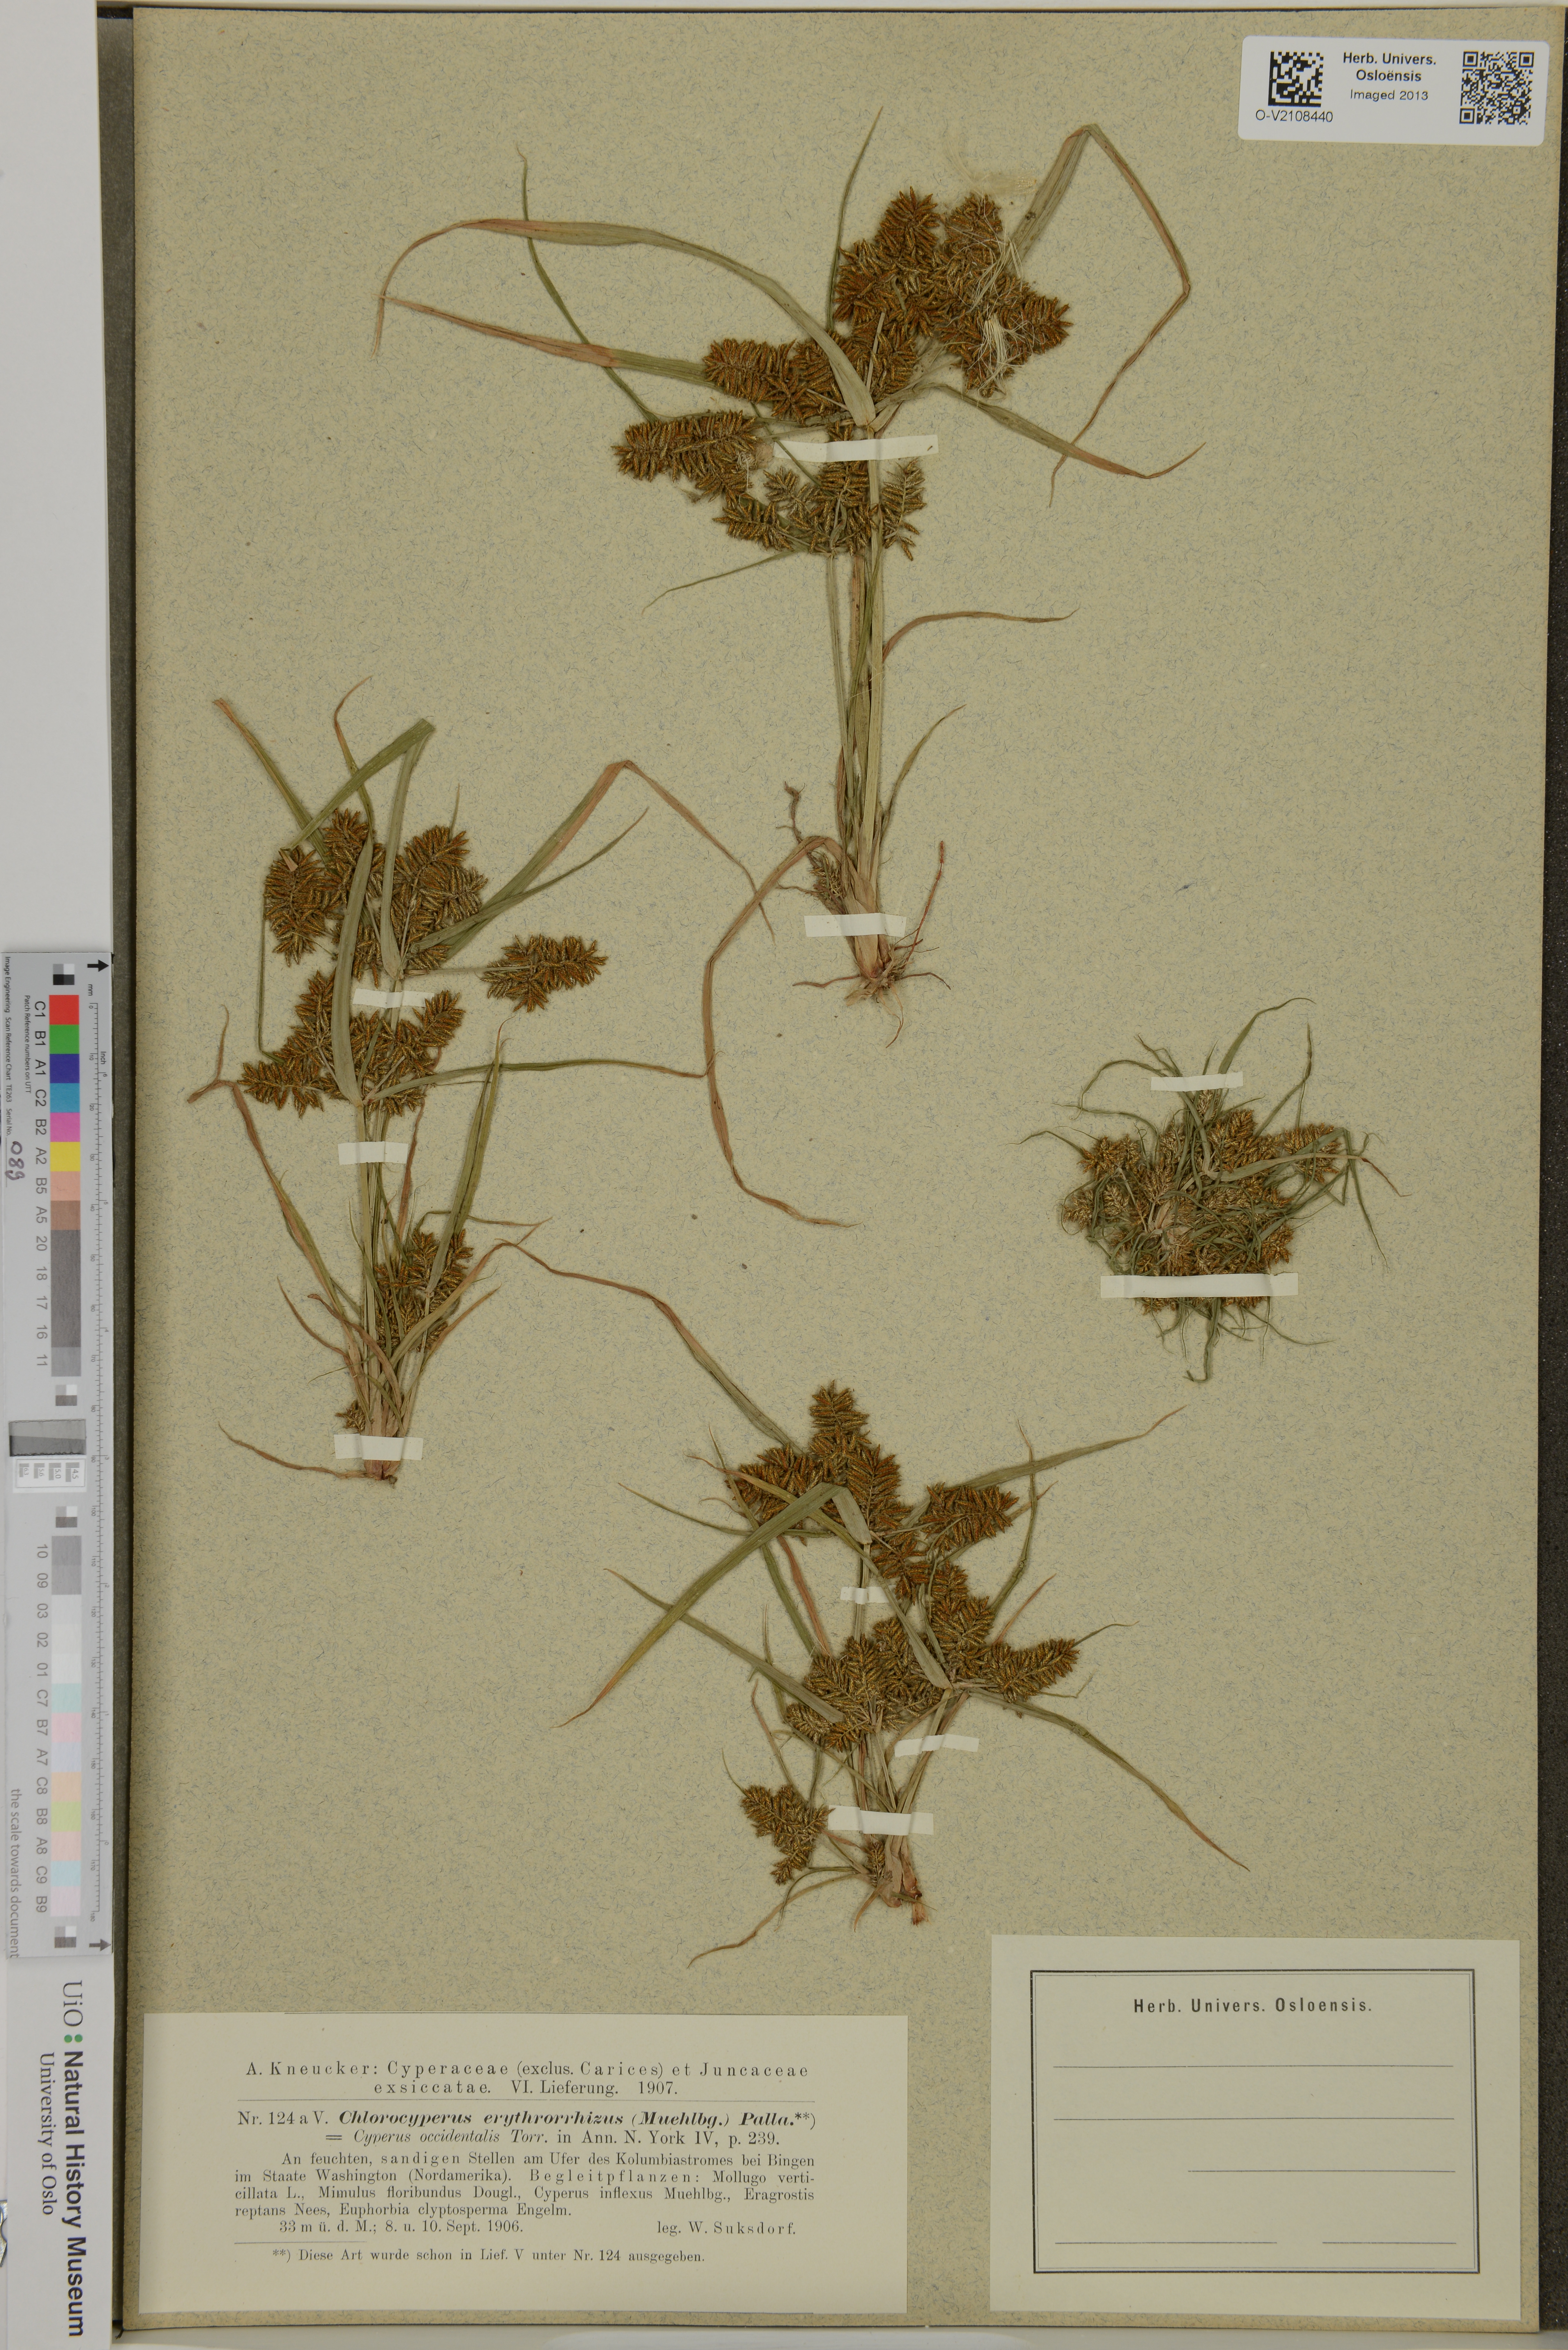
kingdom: Plantae
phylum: Tracheophyta
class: Liliopsida
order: Poales
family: Cyperaceae
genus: Cyperus
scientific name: Cyperus erythrorhizos
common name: Red-root flat sedge
